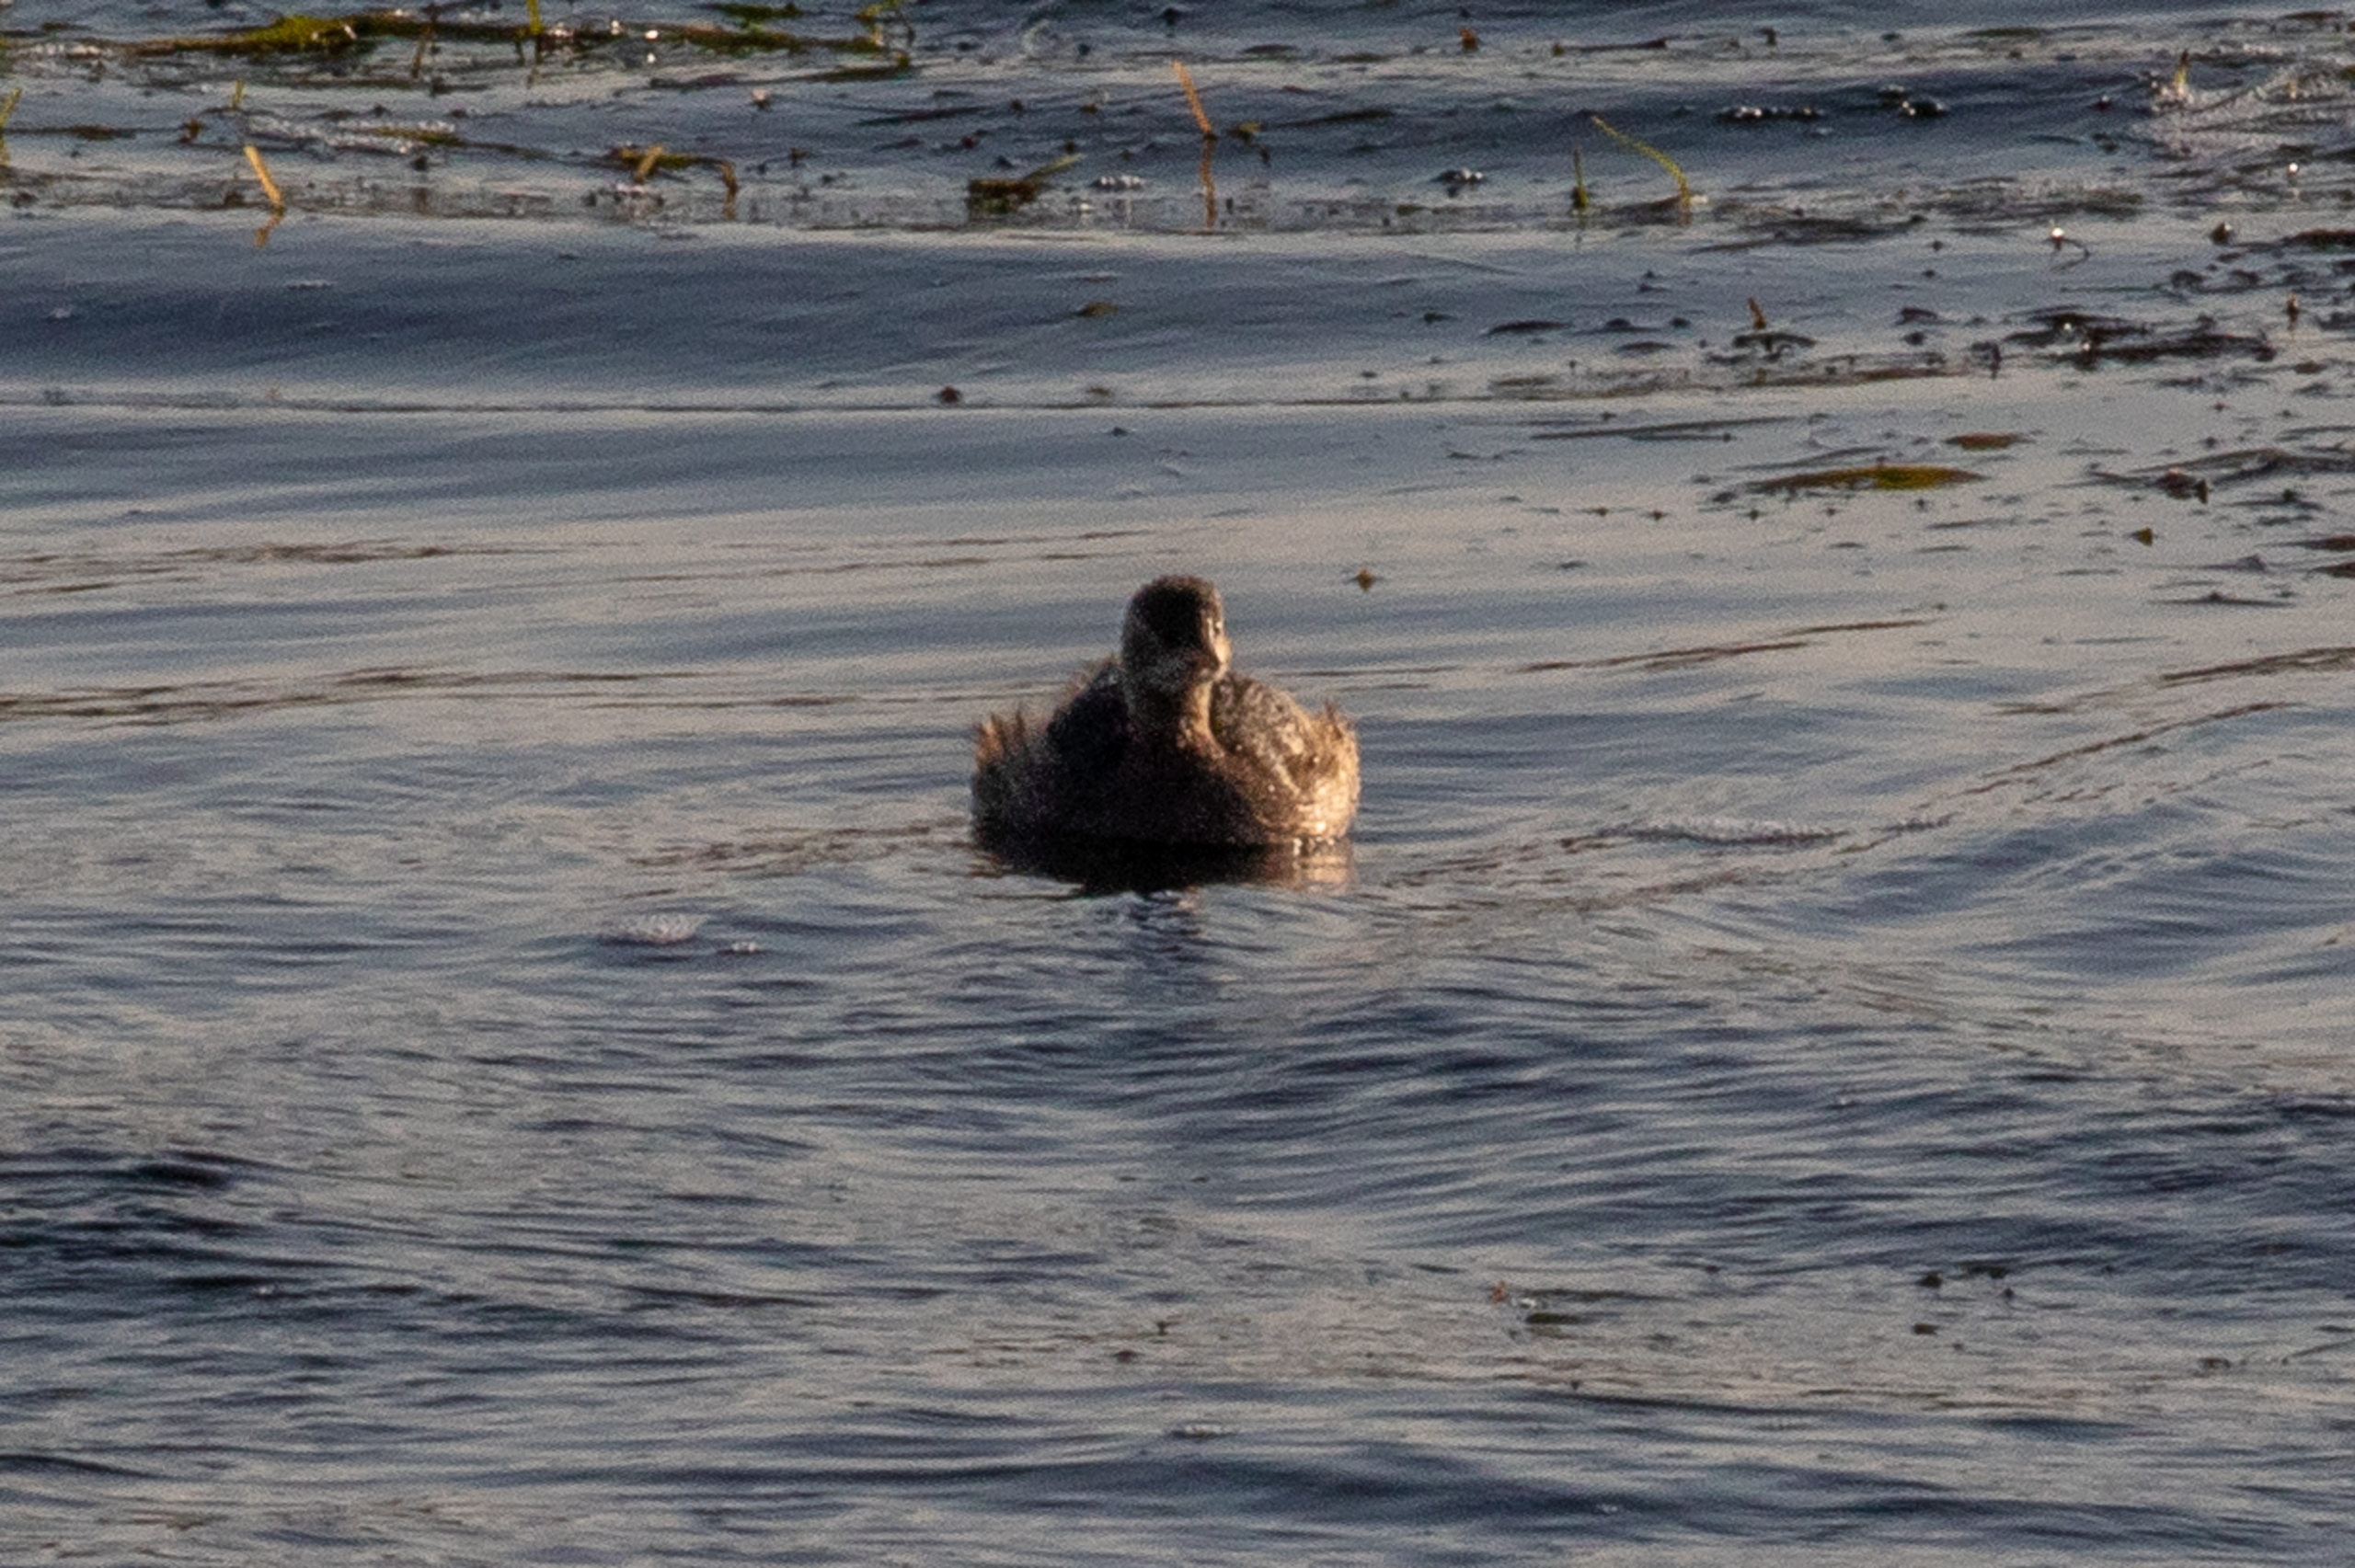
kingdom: Animalia
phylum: Chordata
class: Aves
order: Podicipediformes
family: Podicipedidae
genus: Tachybaptus
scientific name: Tachybaptus ruficollis
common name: Lille lappedykker
